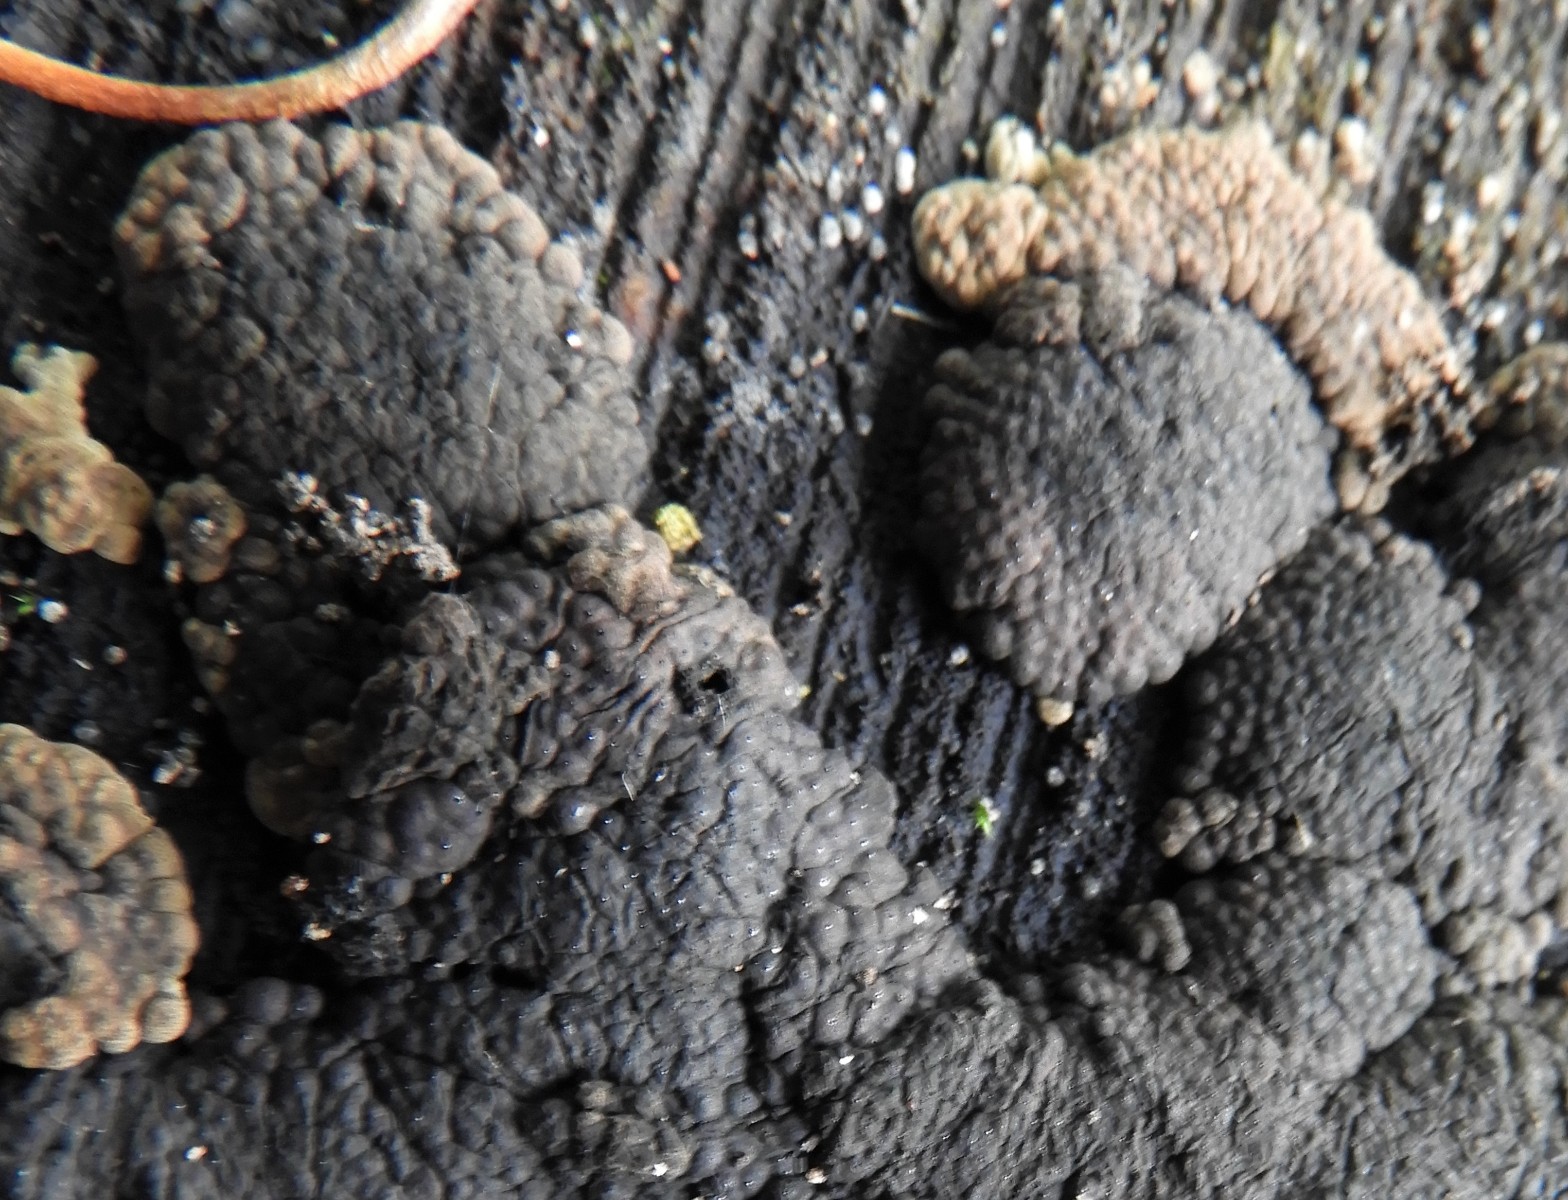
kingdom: Fungi
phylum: Ascomycota
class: Sordariomycetes
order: Xylariales
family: Hypoxylaceae
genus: Jackrogersella
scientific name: Jackrogersella cohaerens
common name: sammenflydende kulbær
